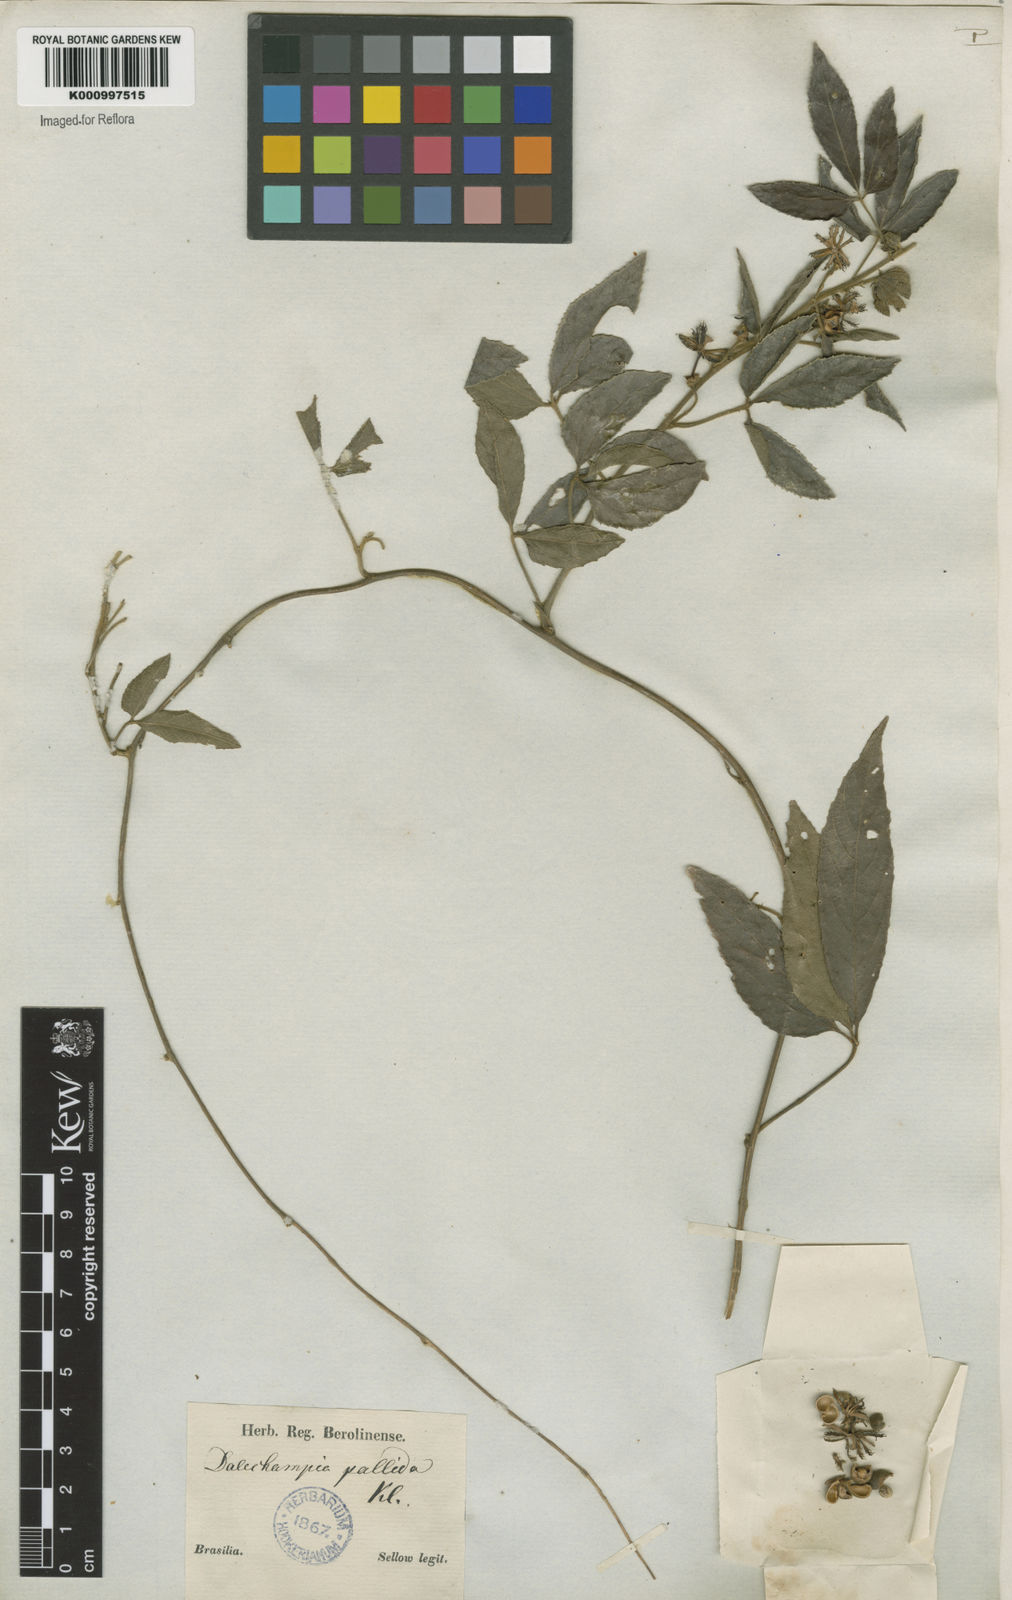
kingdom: Plantae
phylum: Tracheophyta
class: Magnoliopsida
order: Malpighiales
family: Euphorbiaceae
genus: Dalechampia
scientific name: Dalechampia
